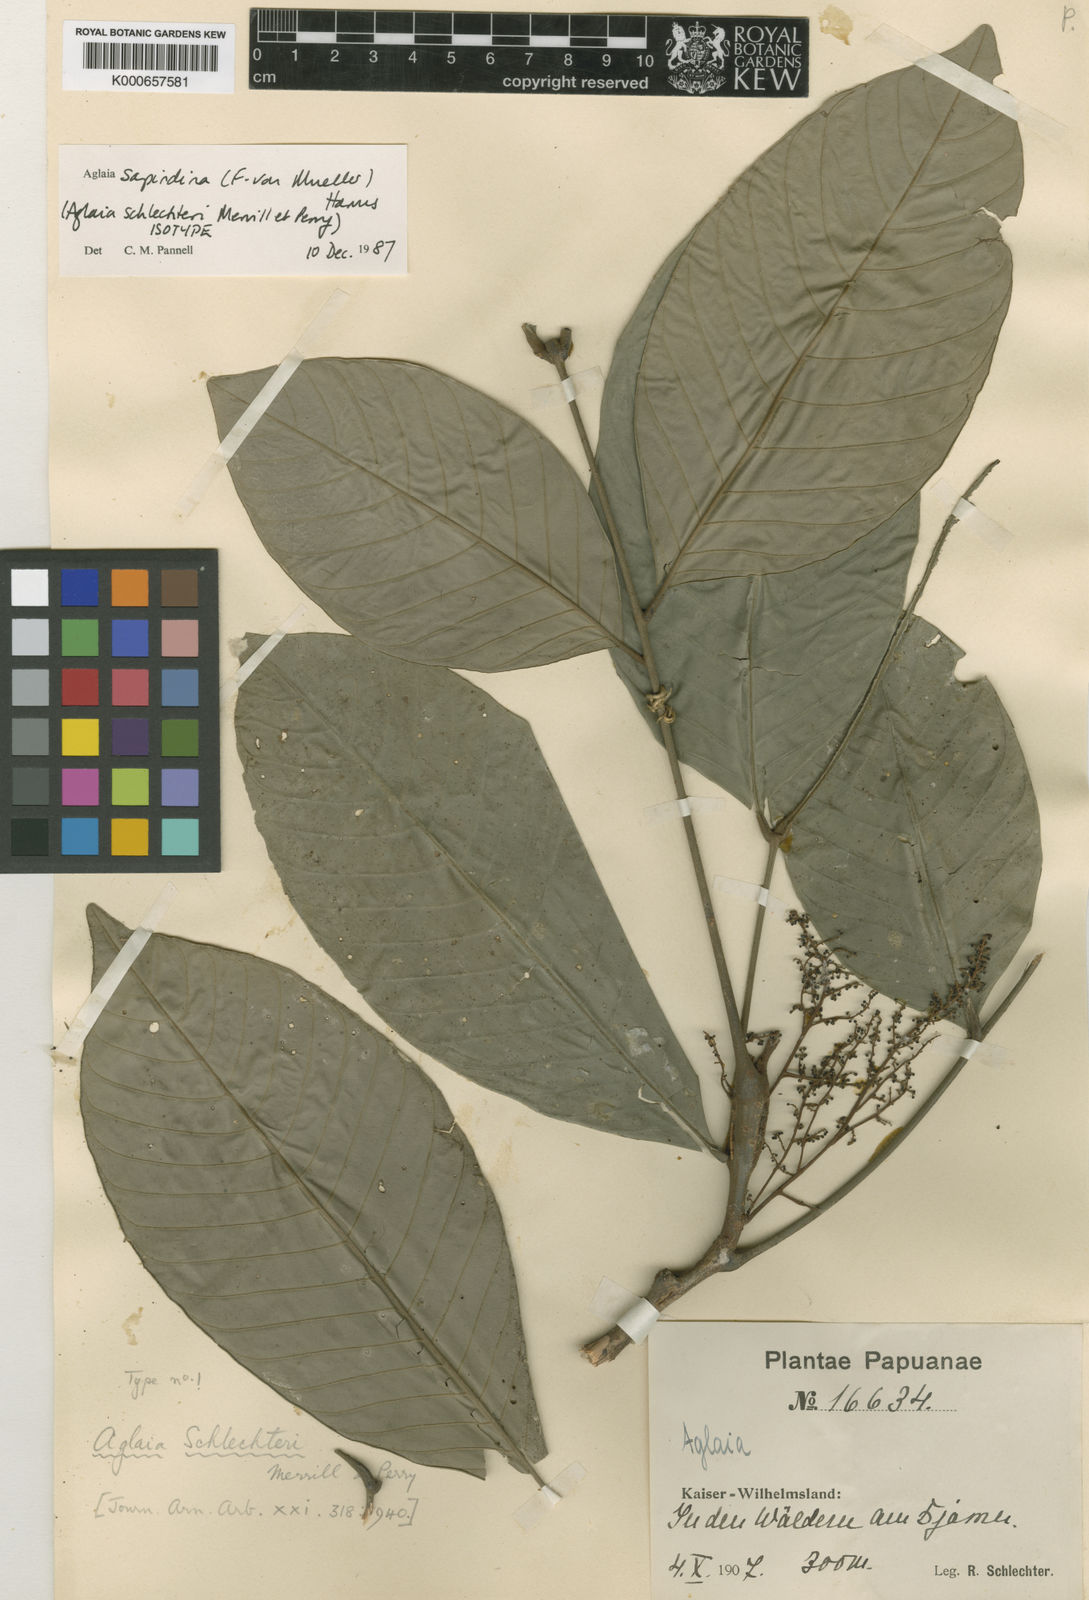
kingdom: Plantae
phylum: Tracheophyta
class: Magnoliopsida
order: Sapindales
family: Meliaceae
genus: Aglaia
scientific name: Aglaia sapindina
